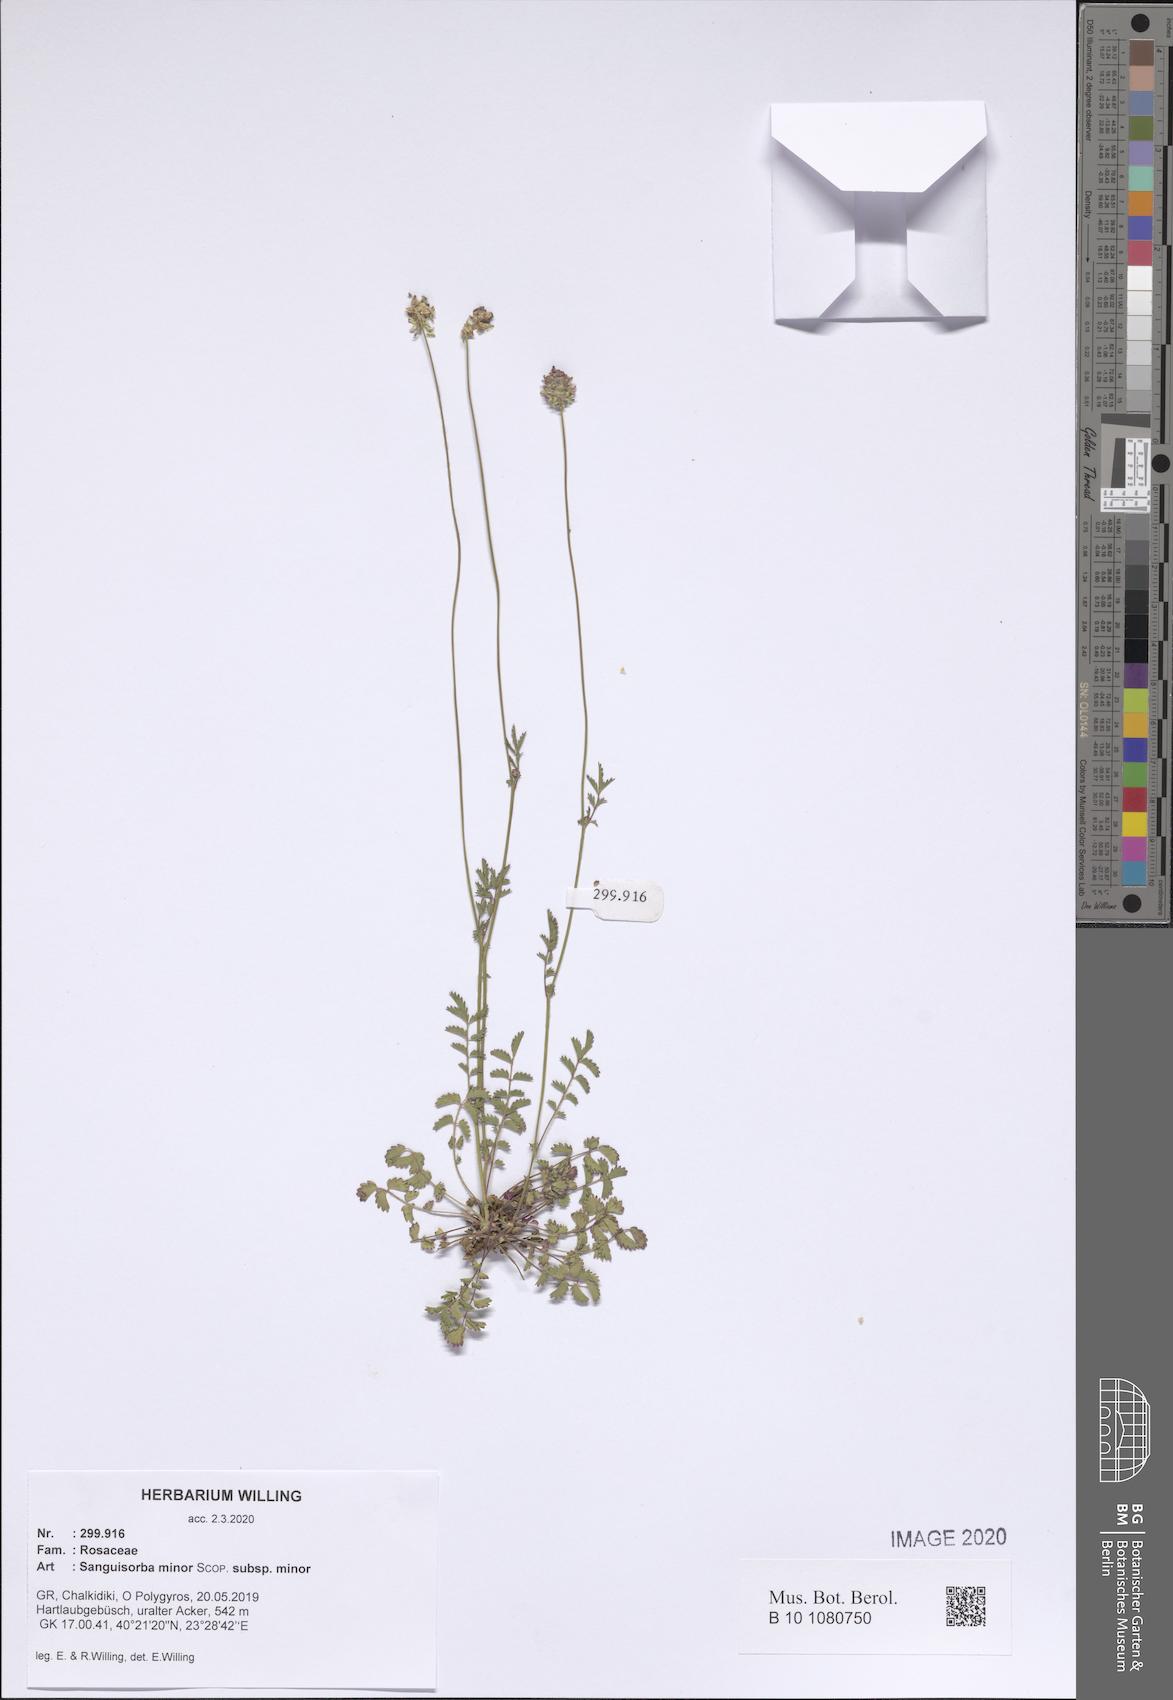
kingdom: Plantae
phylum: Tracheophyta
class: Magnoliopsida
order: Rosales
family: Rosaceae
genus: Poterium
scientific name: Poterium sanguisorba
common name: Salad burnet
